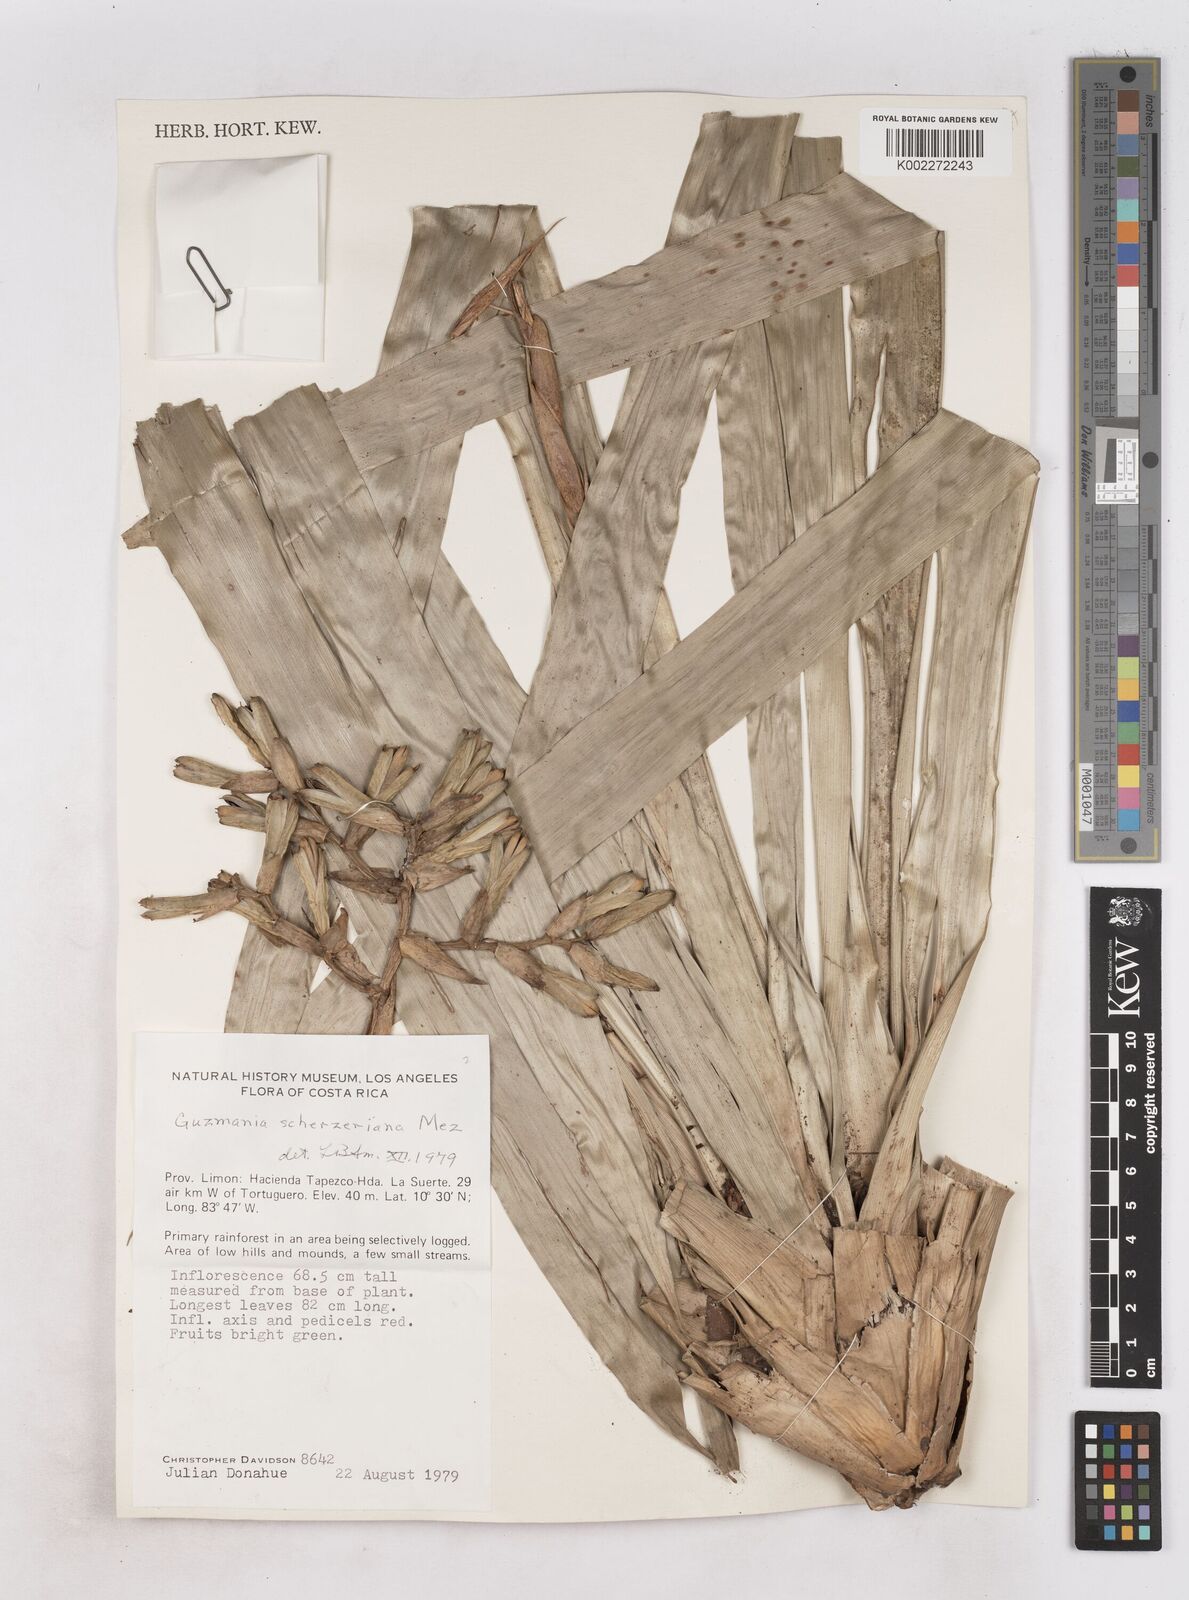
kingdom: Plantae
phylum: Tracheophyta
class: Liliopsida
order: Poales
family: Bromeliaceae
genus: Guzmania
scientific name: Guzmania scherzeriana
